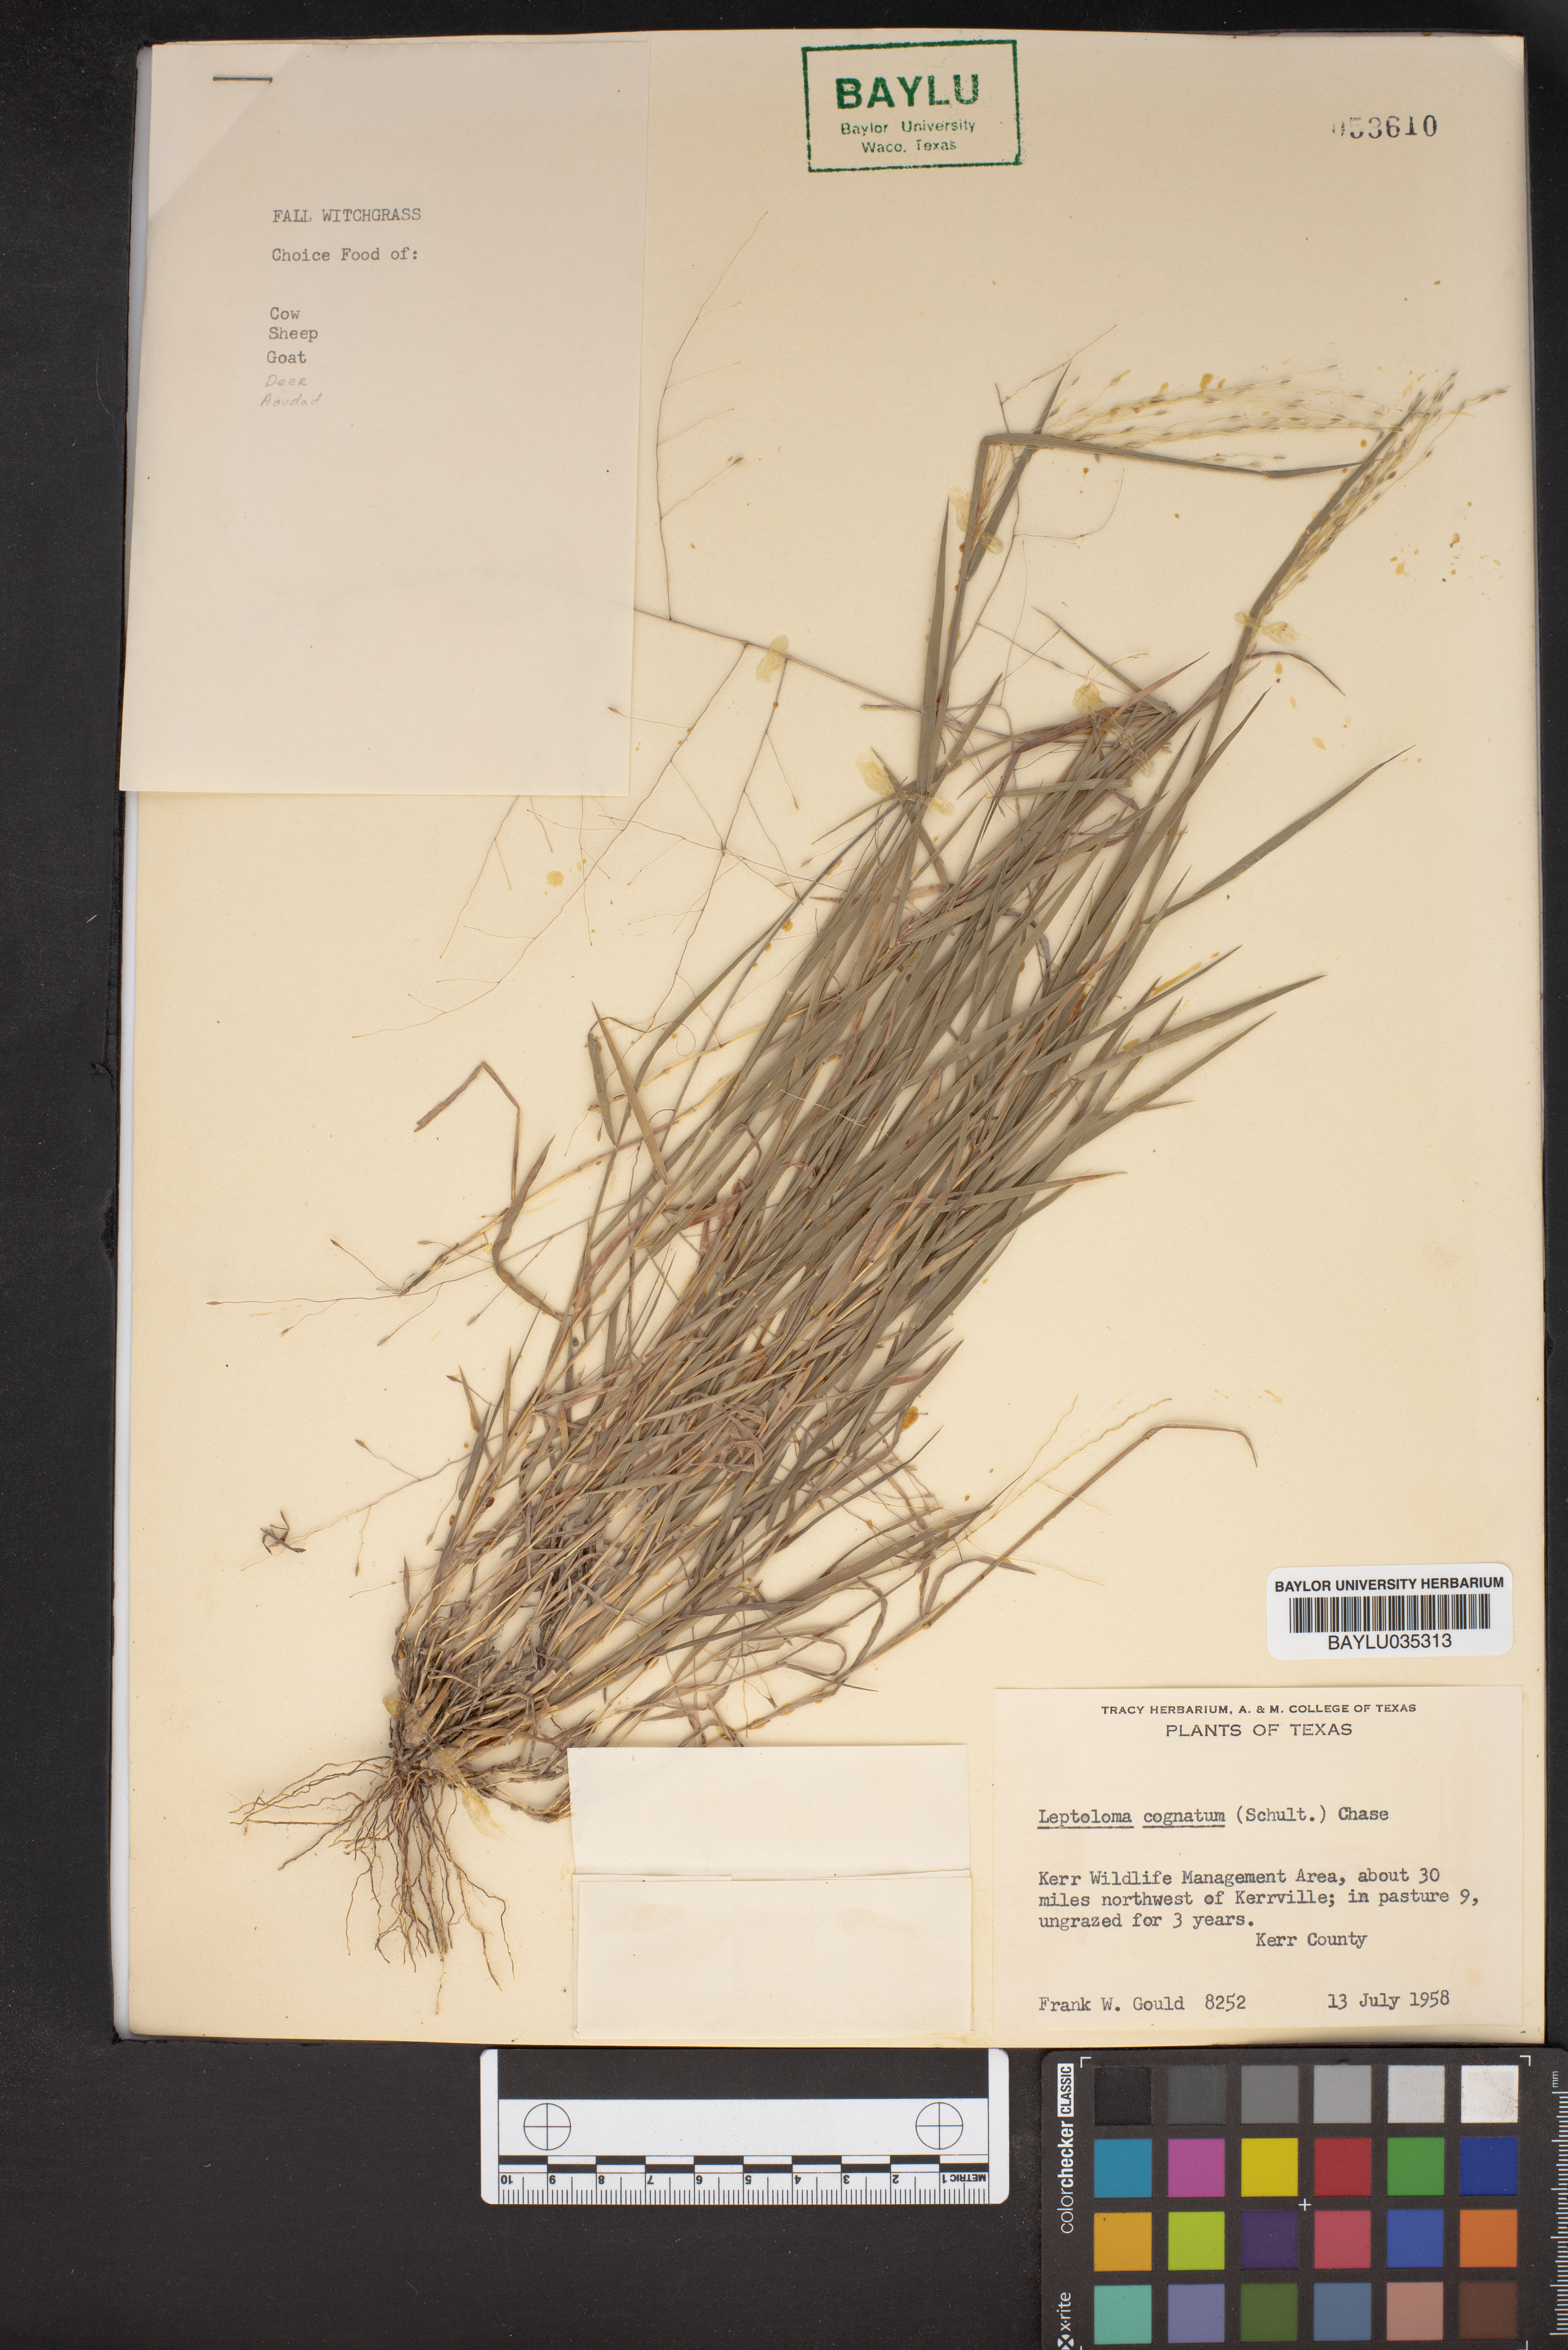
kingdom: Plantae
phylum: Tracheophyta
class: Liliopsida
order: Poales
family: Poaceae
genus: Digitaria
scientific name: Digitaria cognata
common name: Fall witchgrass
